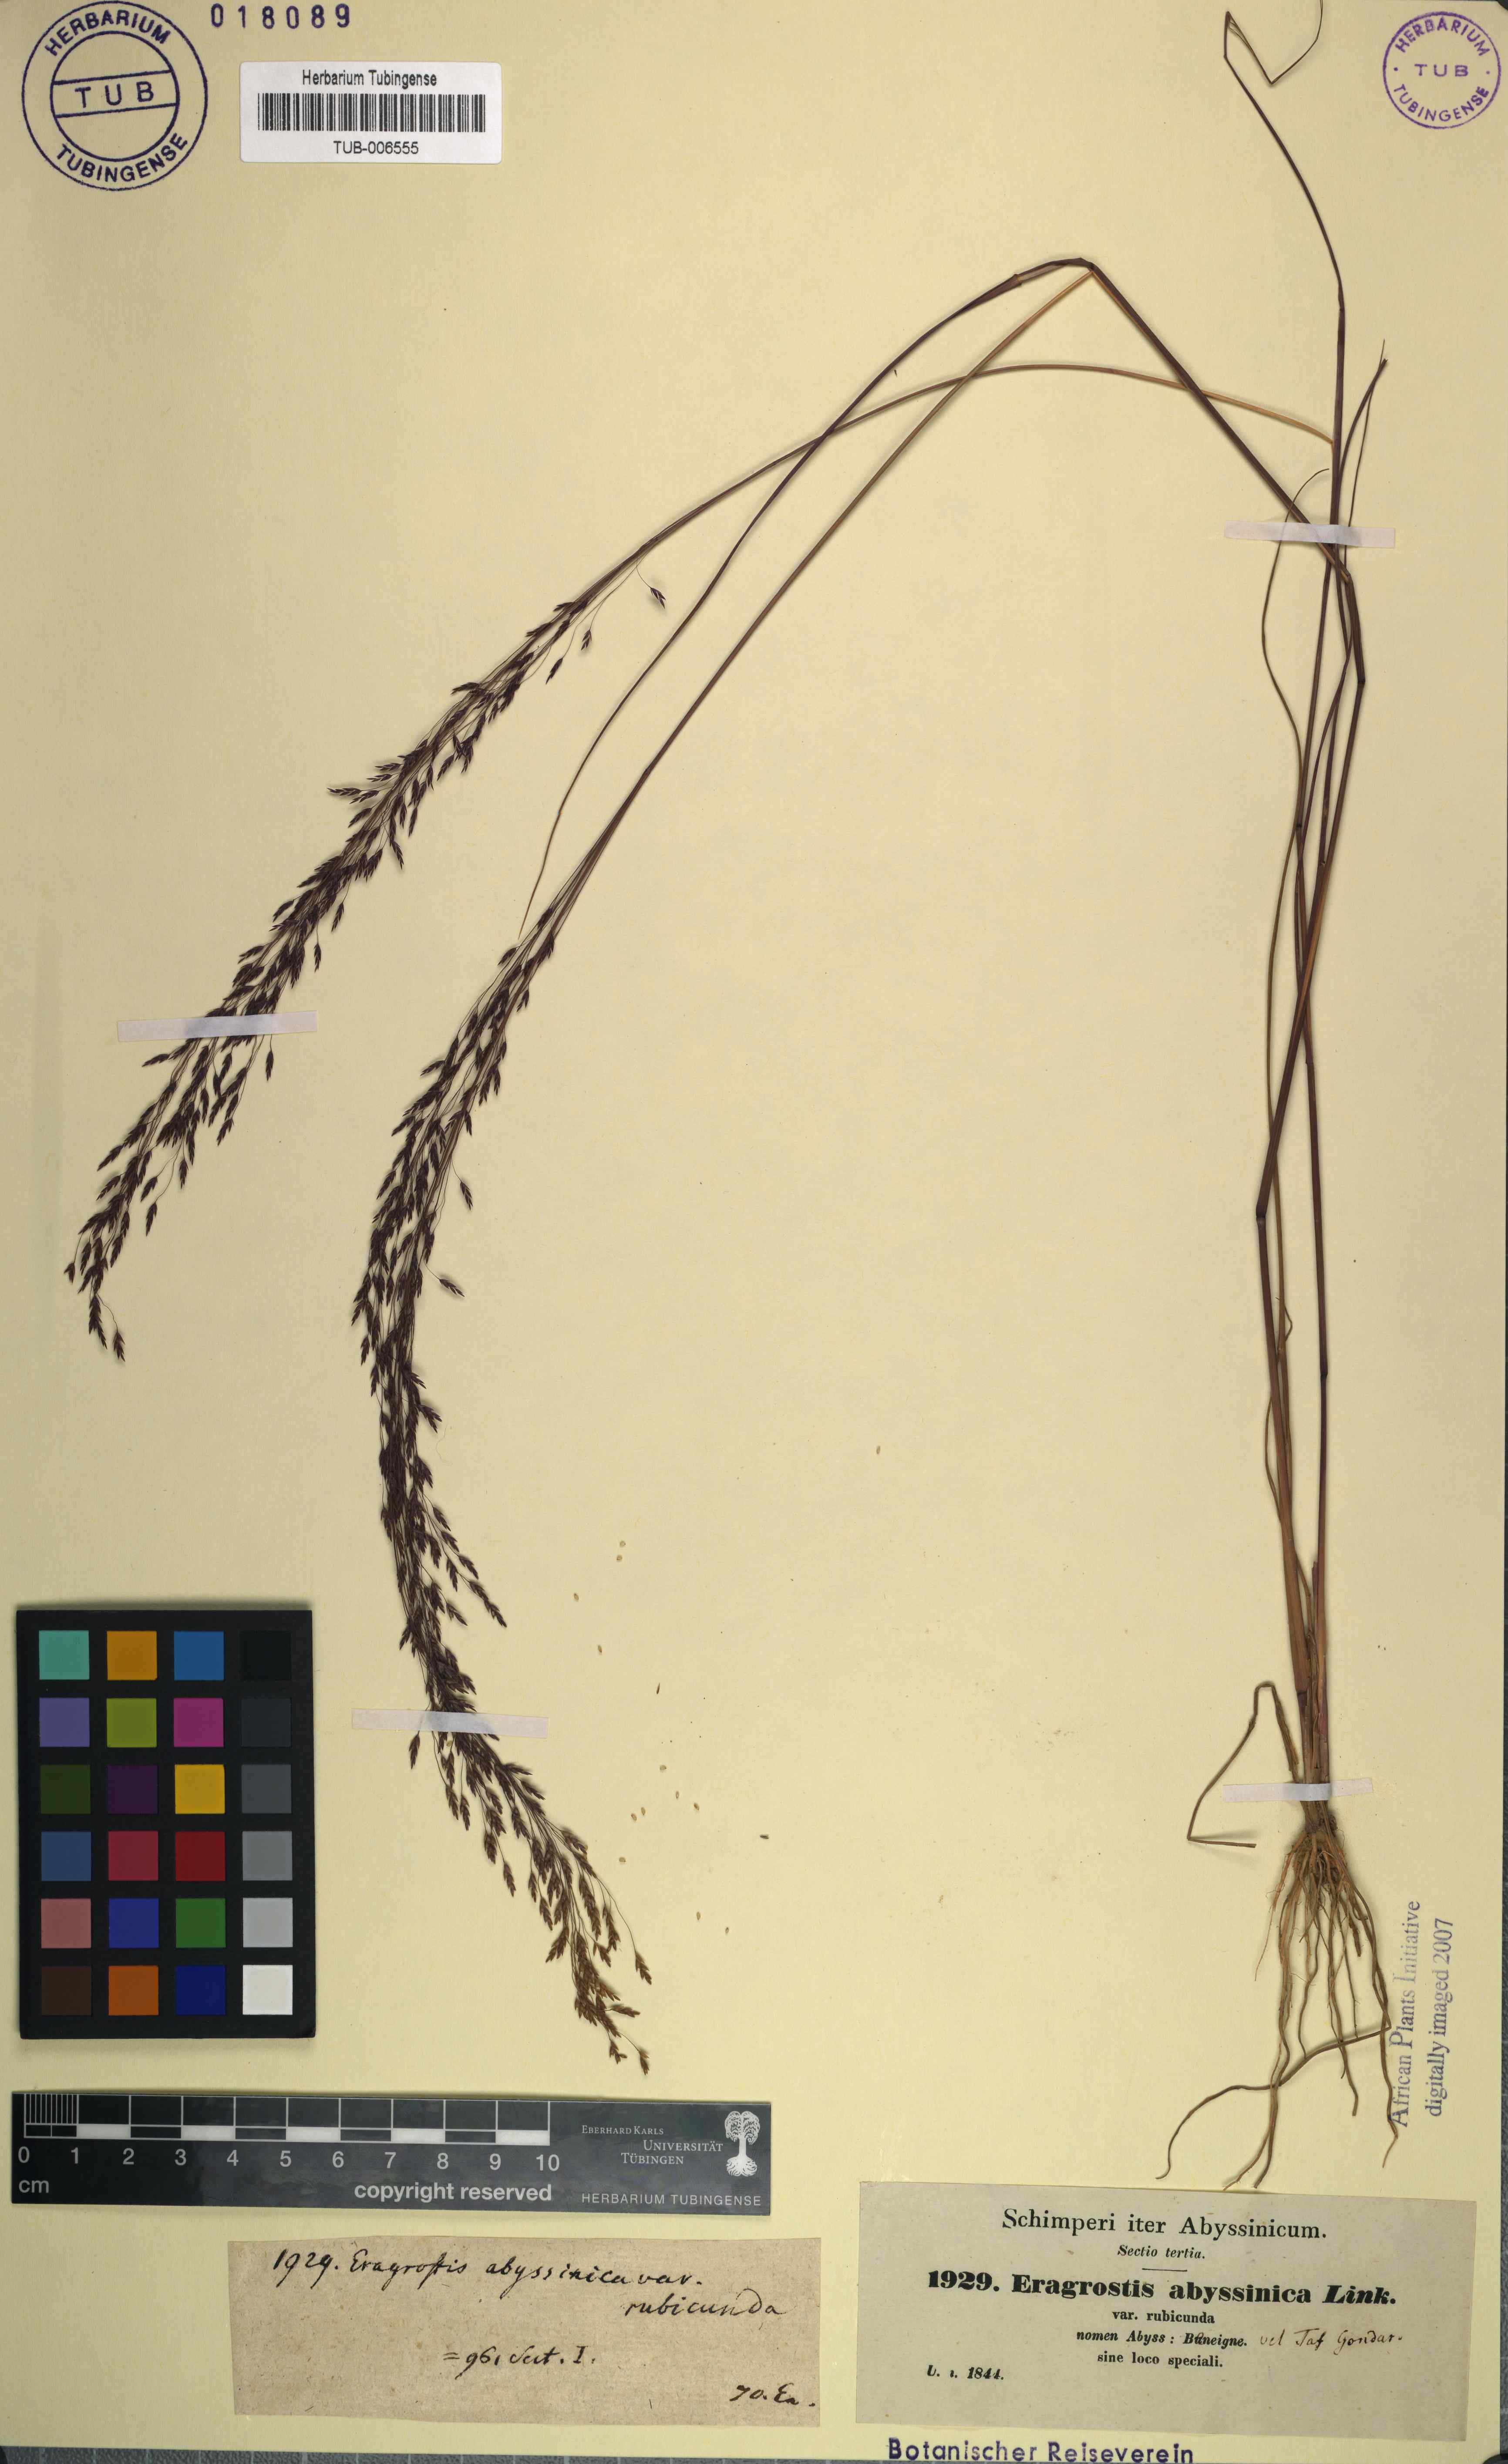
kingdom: Plantae
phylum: Tracheophyta
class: Liliopsida
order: Poales
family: Poaceae
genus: Eragrostis
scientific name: Eragrostis tef
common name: Teff
